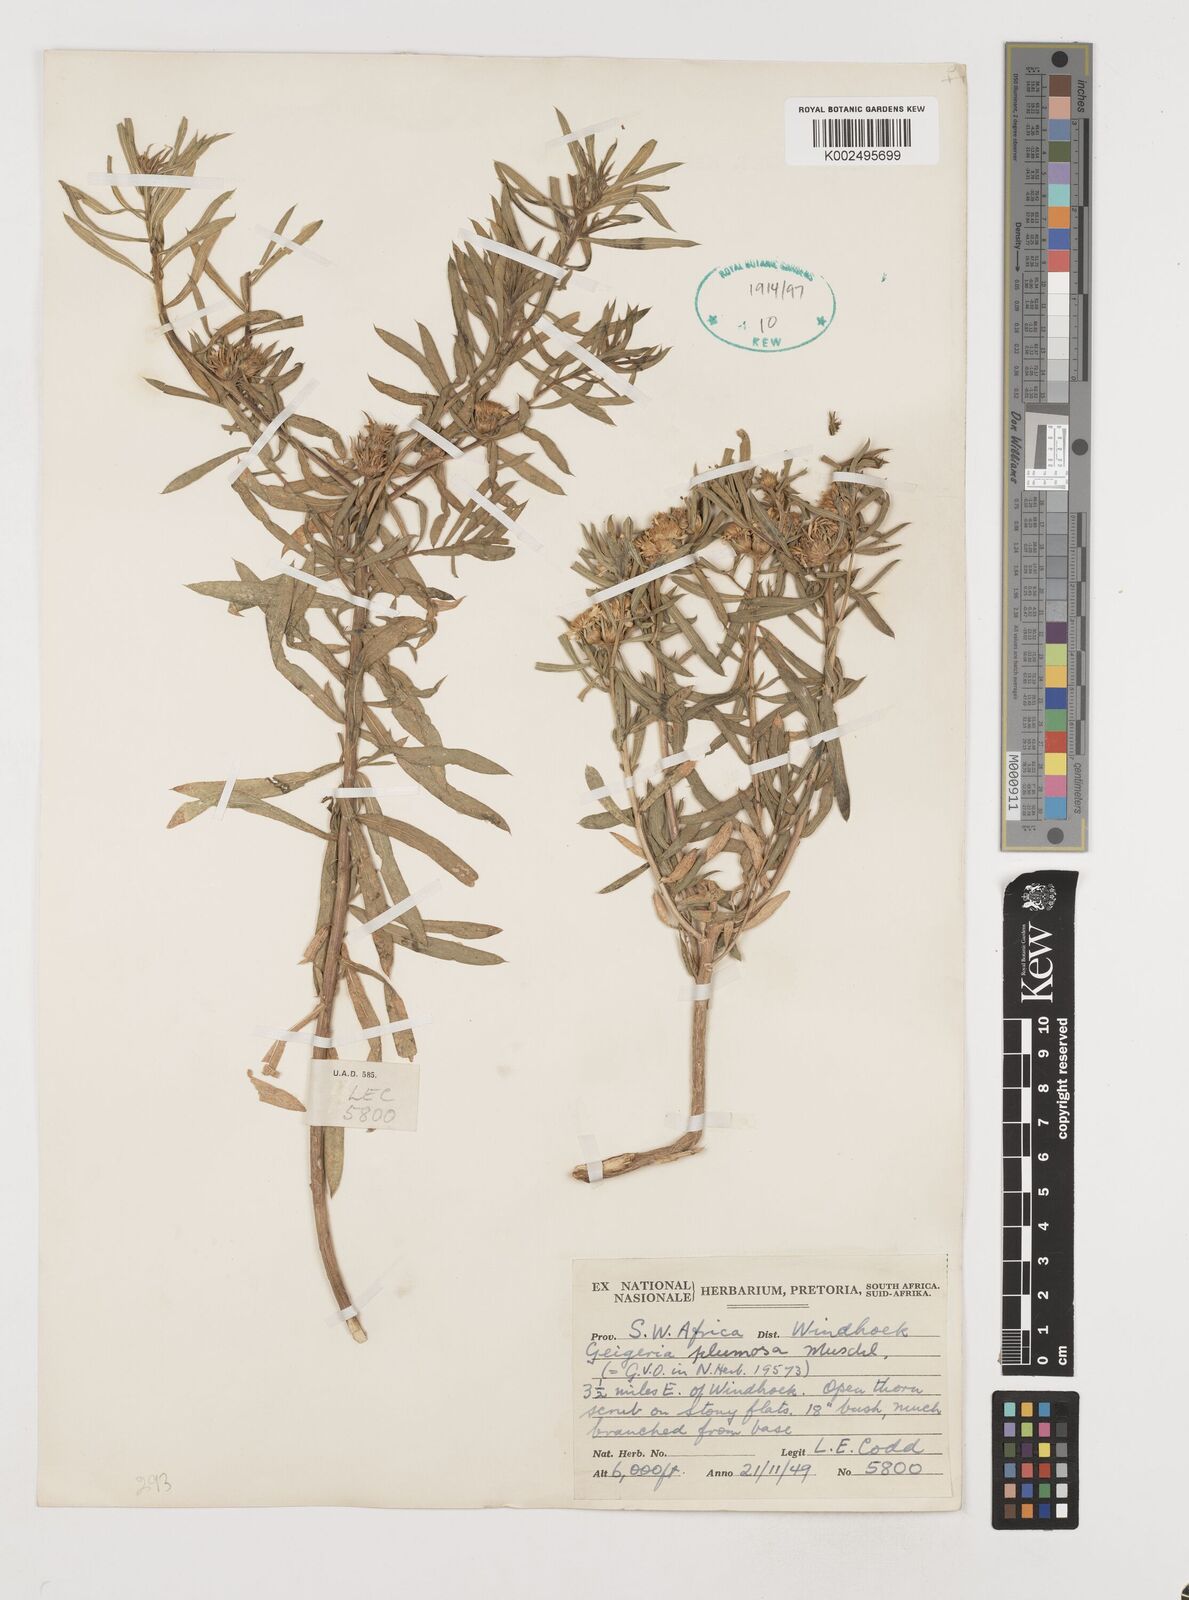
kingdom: Plantae
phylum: Tracheophyta
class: Magnoliopsida
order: Asterales
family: Asteraceae
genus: Geigeria
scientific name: Geigeria plumosa
